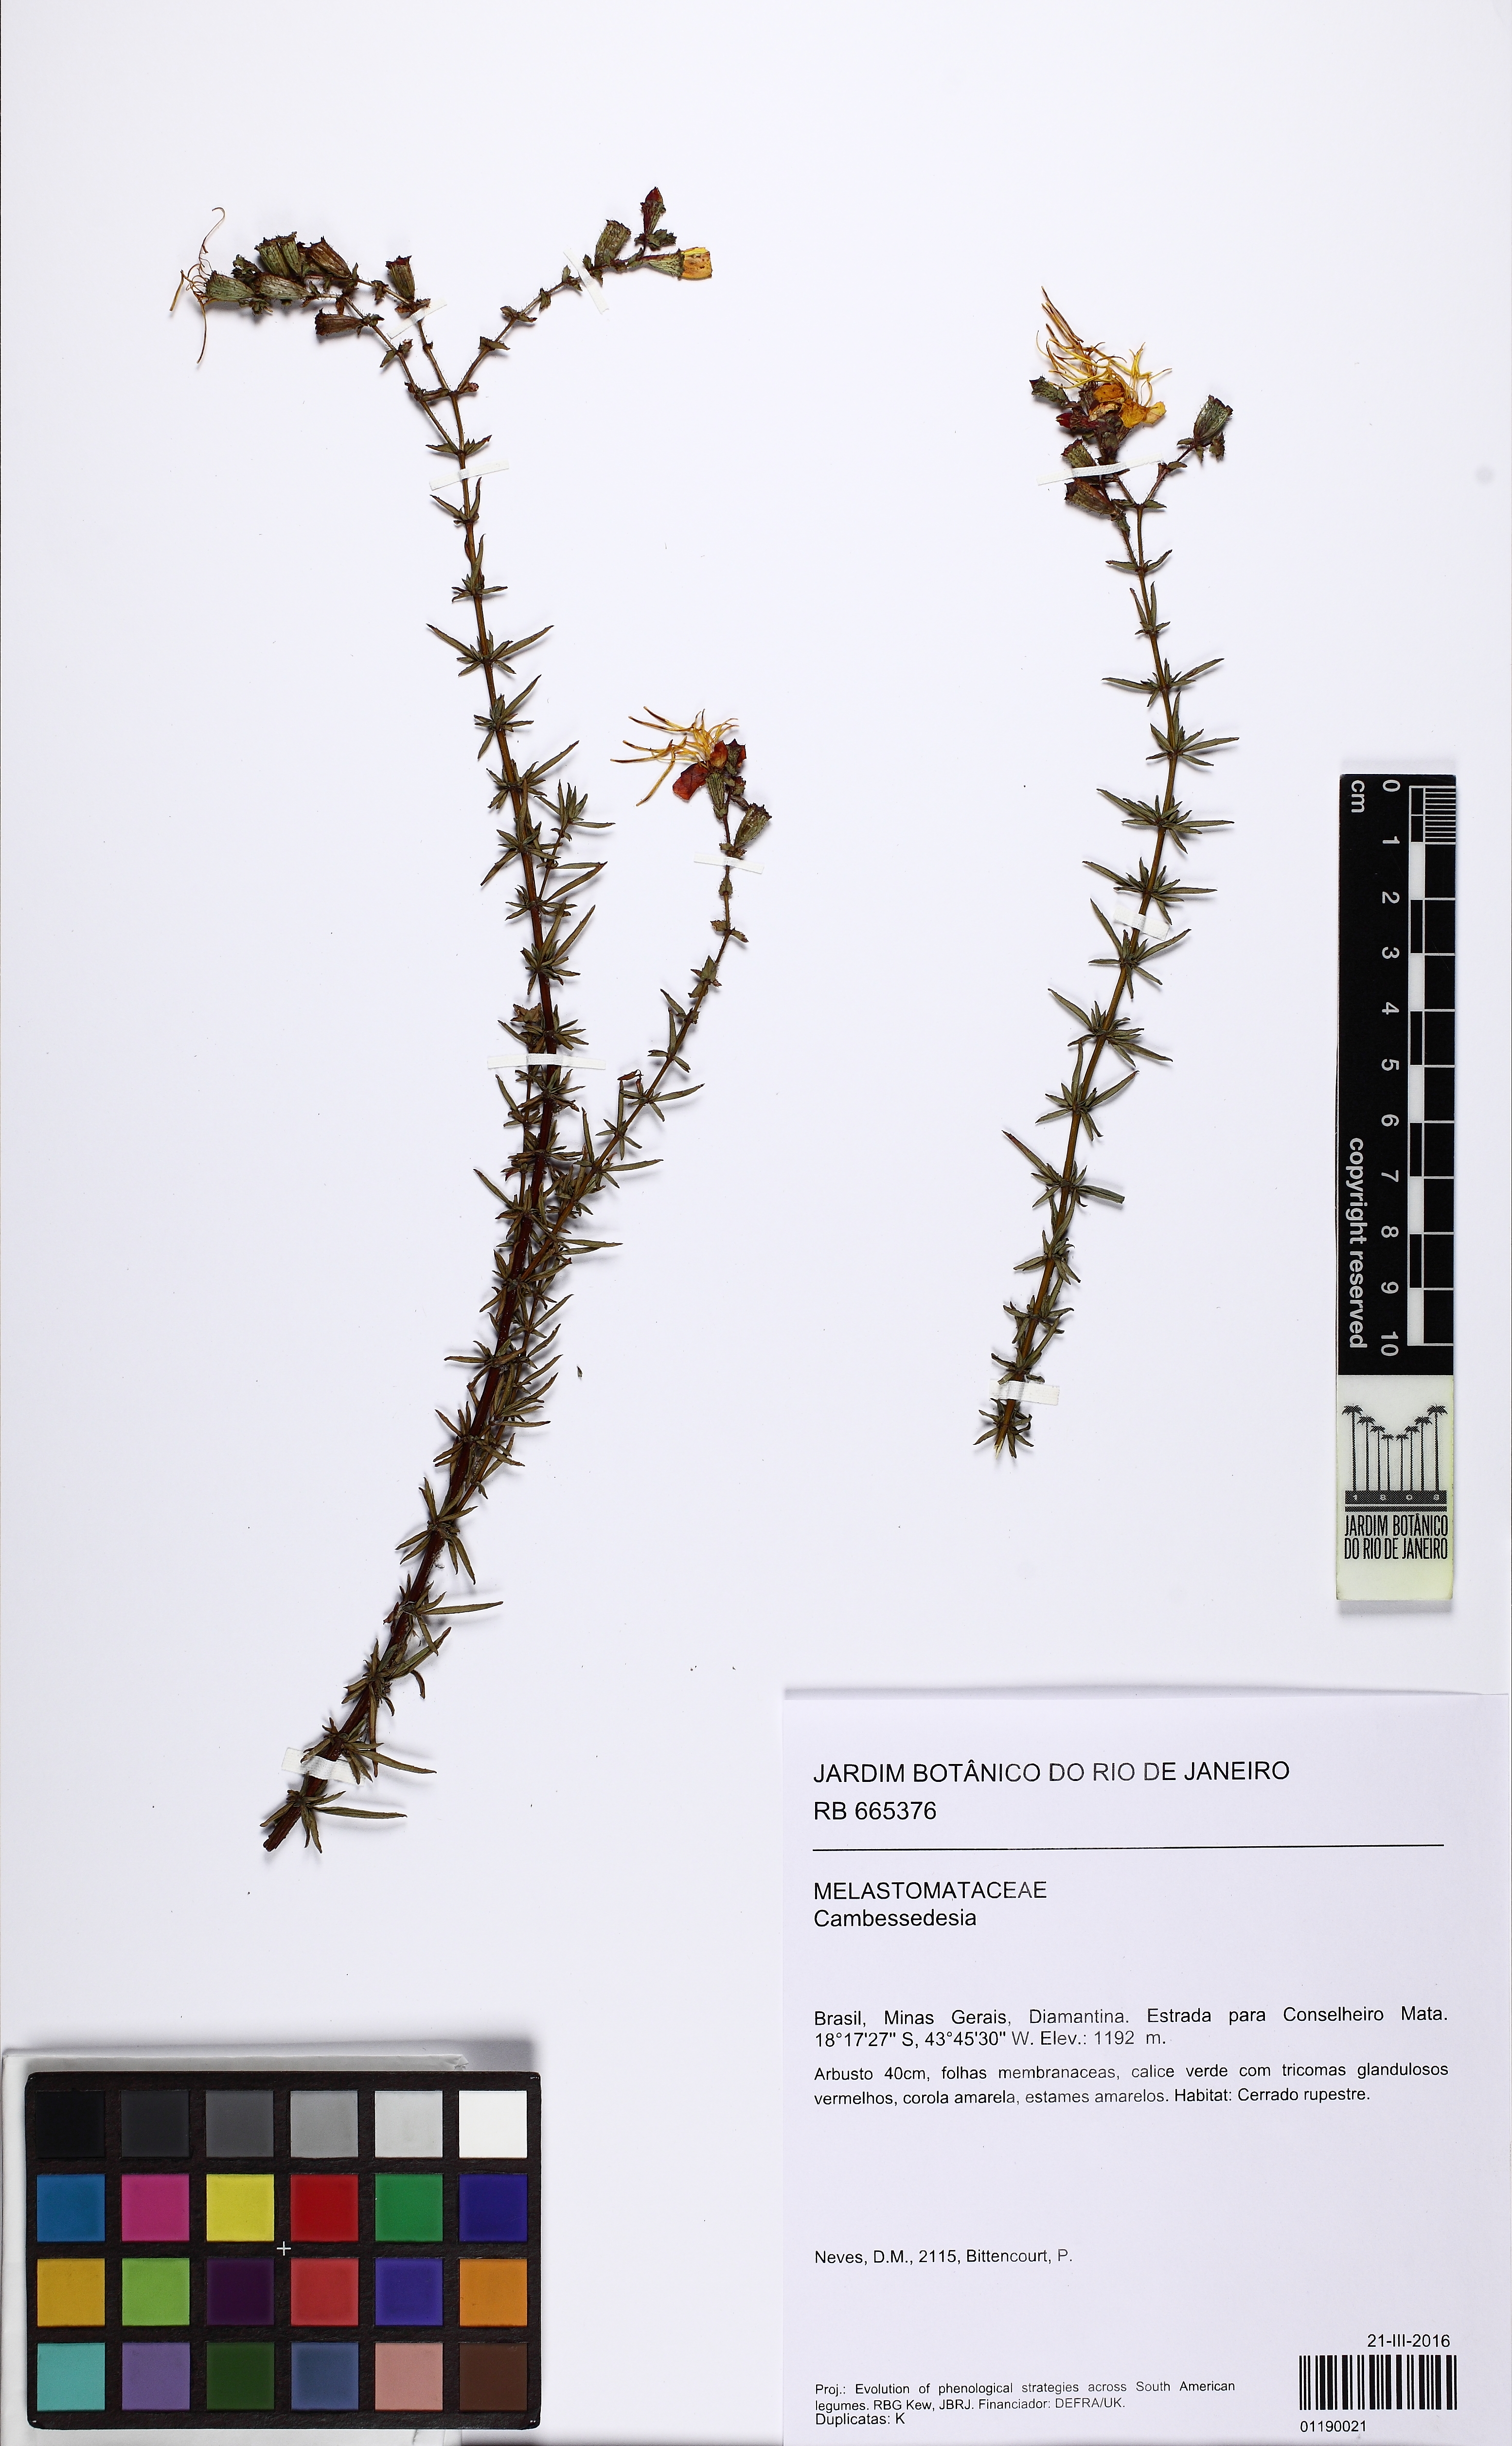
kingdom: Plantae
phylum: Tracheophyta
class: Magnoliopsida
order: Myrtales
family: Melastomataceae
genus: Cambessedesia
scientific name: Cambessedesia
